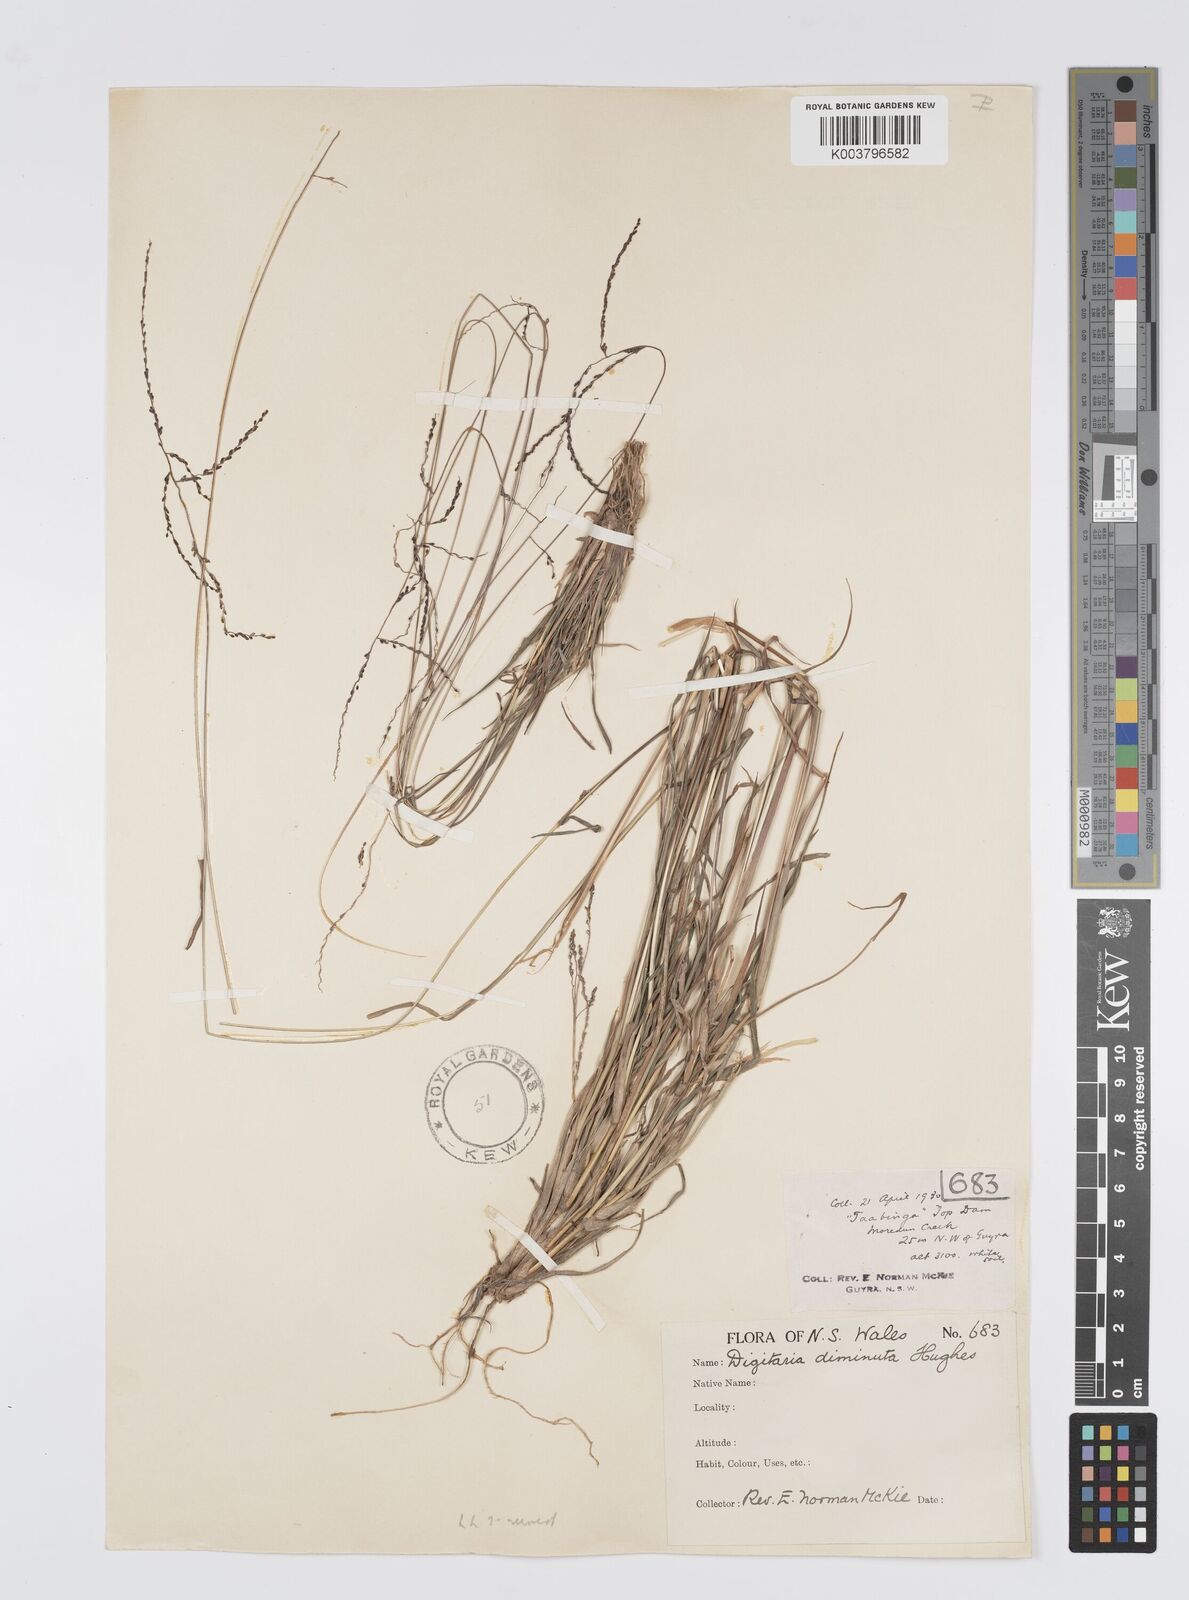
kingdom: Plantae
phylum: Tracheophyta
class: Liliopsida
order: Poales
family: Poaceae
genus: Digitaria
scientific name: Digitaria breviglumis
